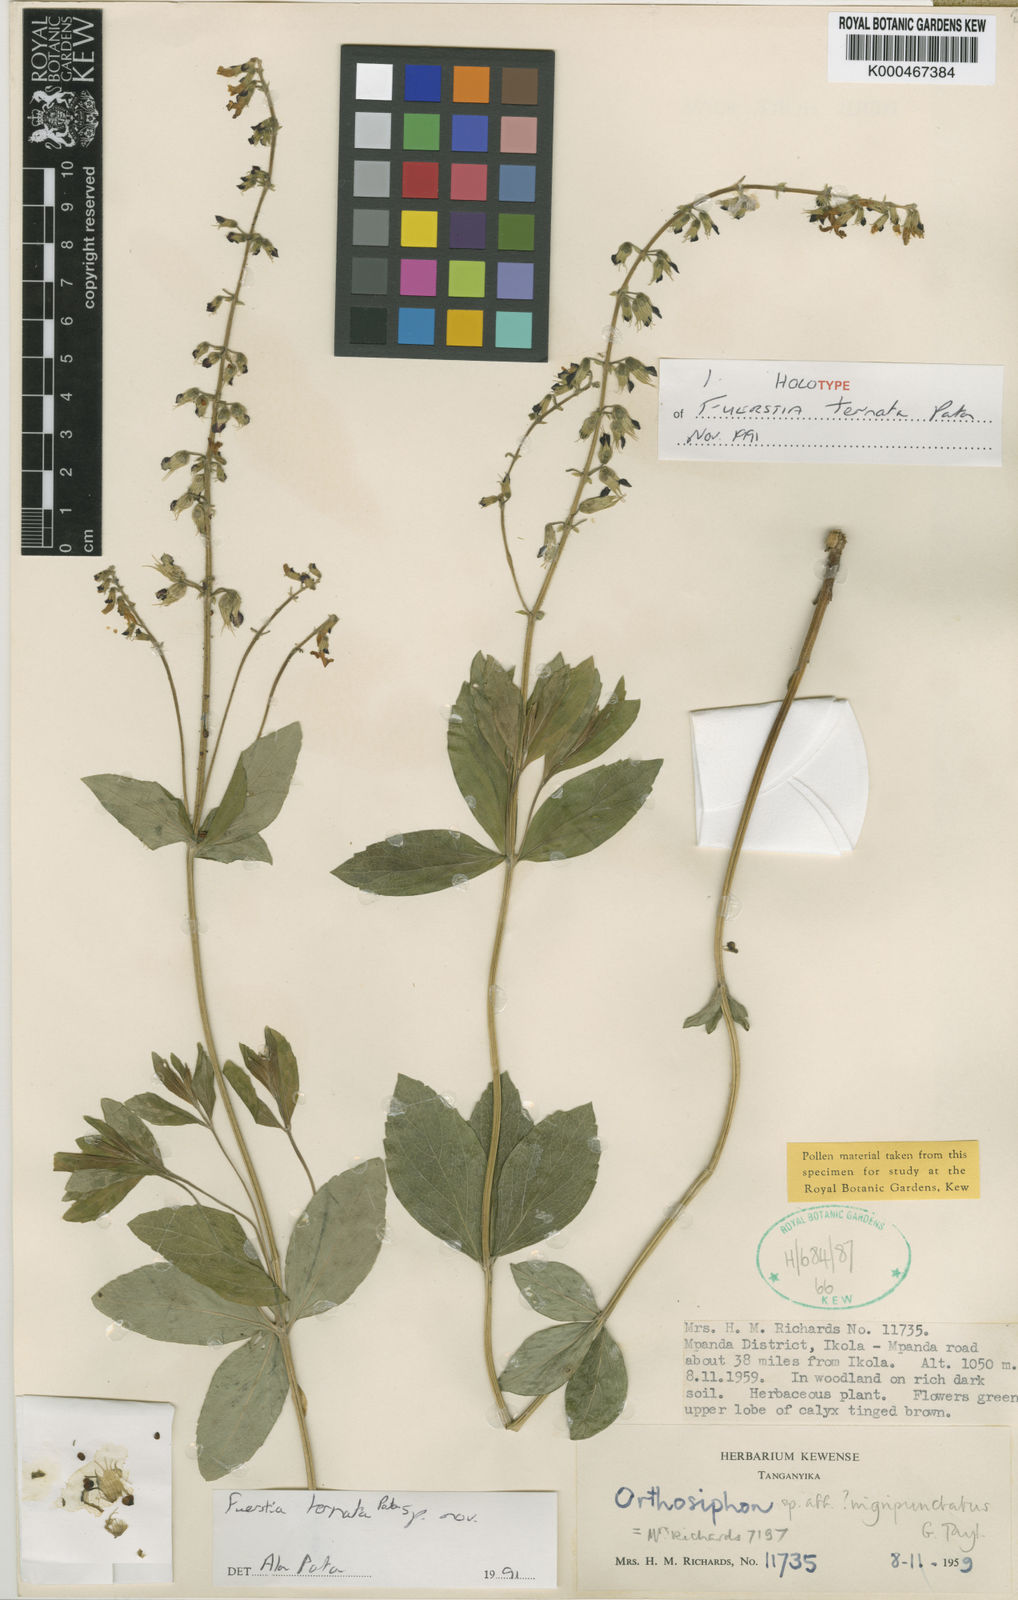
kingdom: Plantae
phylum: Tracheophyta
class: Magnoliopsida
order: Lamiales
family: Lamiaceae
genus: Fuerstia
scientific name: Fuerstia ternata
